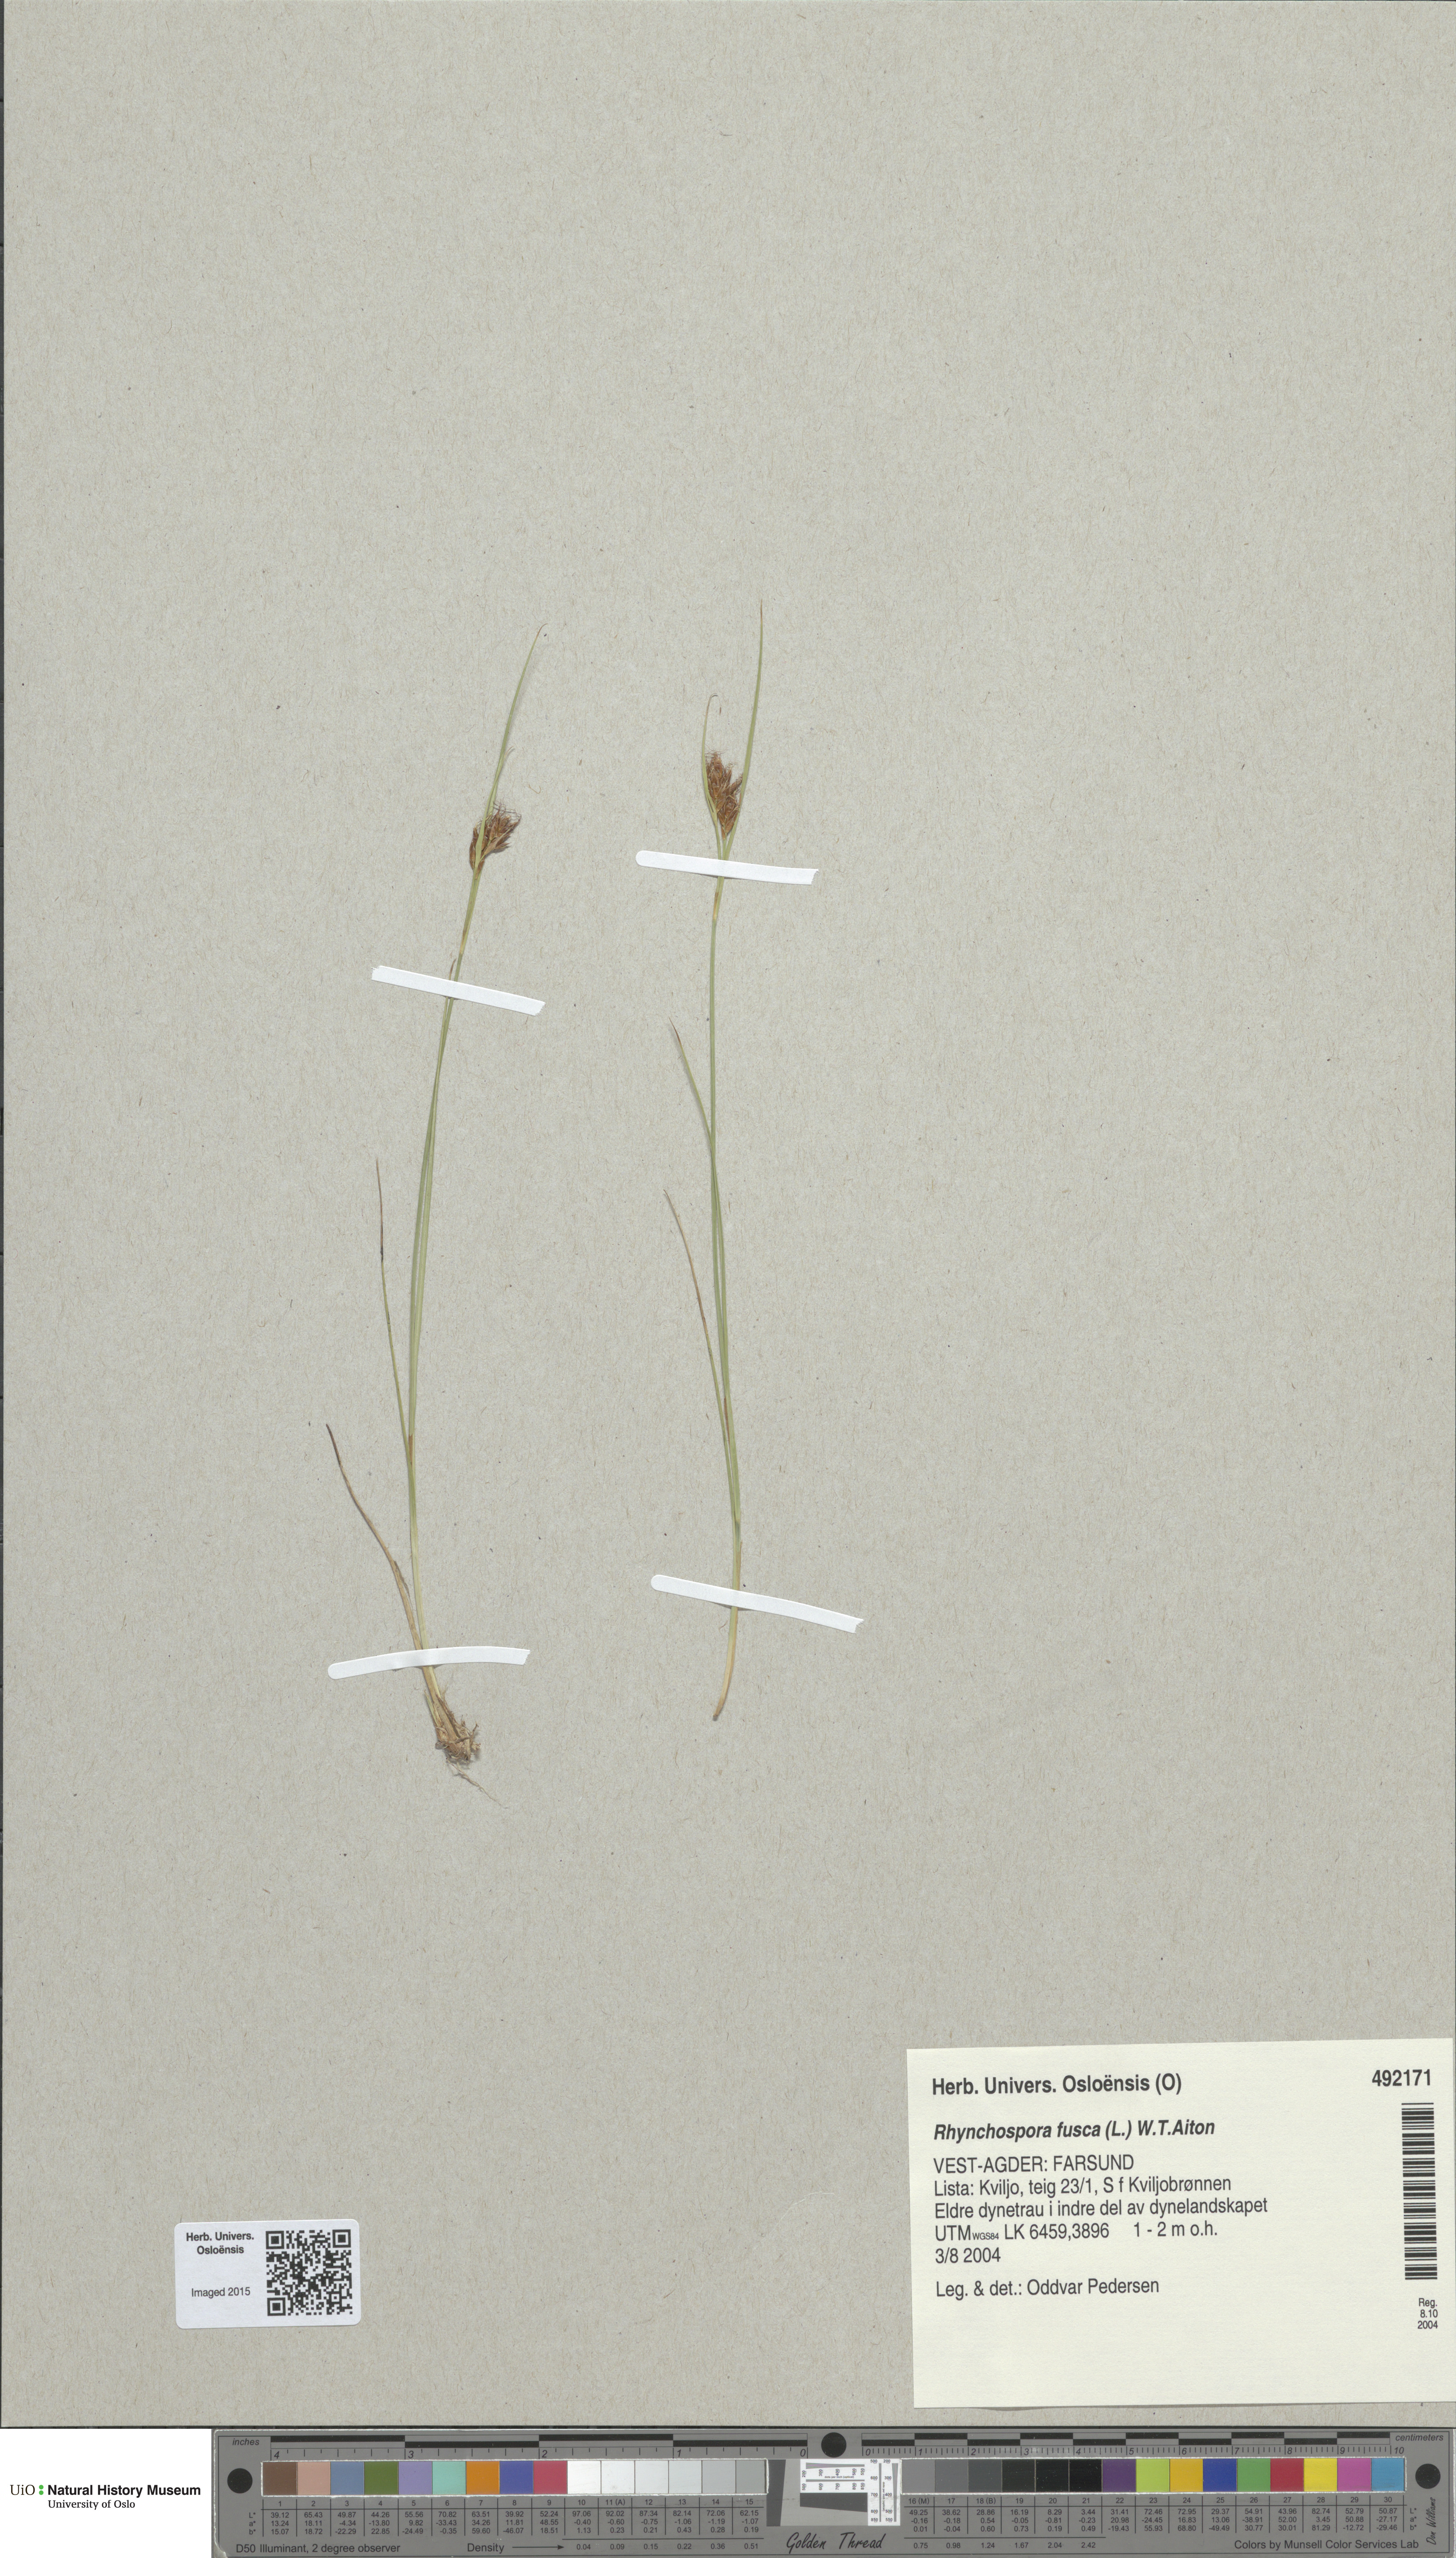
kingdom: Plantae
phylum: Tracheophyta
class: Liliopsida
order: Poales
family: Cyperaceae
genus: Rhynchospora
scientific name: Rhynchospora fusca
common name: Brown beak-sedge
